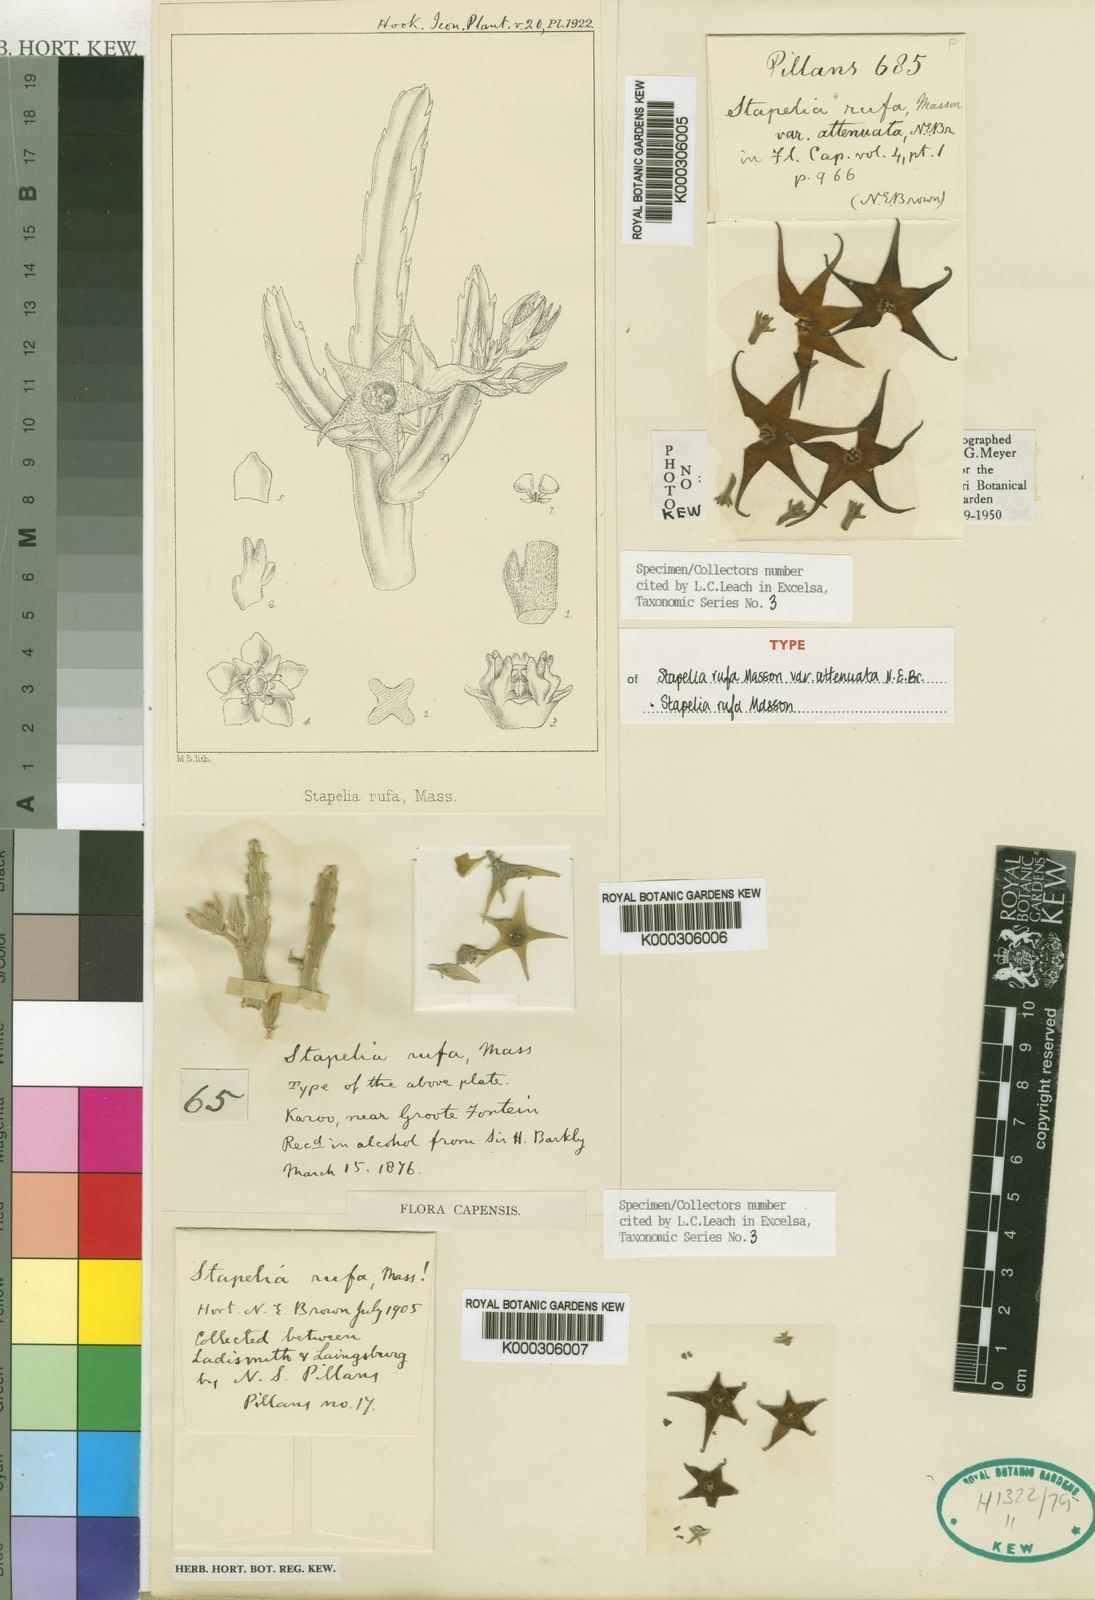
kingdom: Plantae
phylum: Tracheophyta
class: Magnoliopsida
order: Gentianales
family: Apocynaceae
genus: Ceropegia
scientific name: Ceropegia rufa
